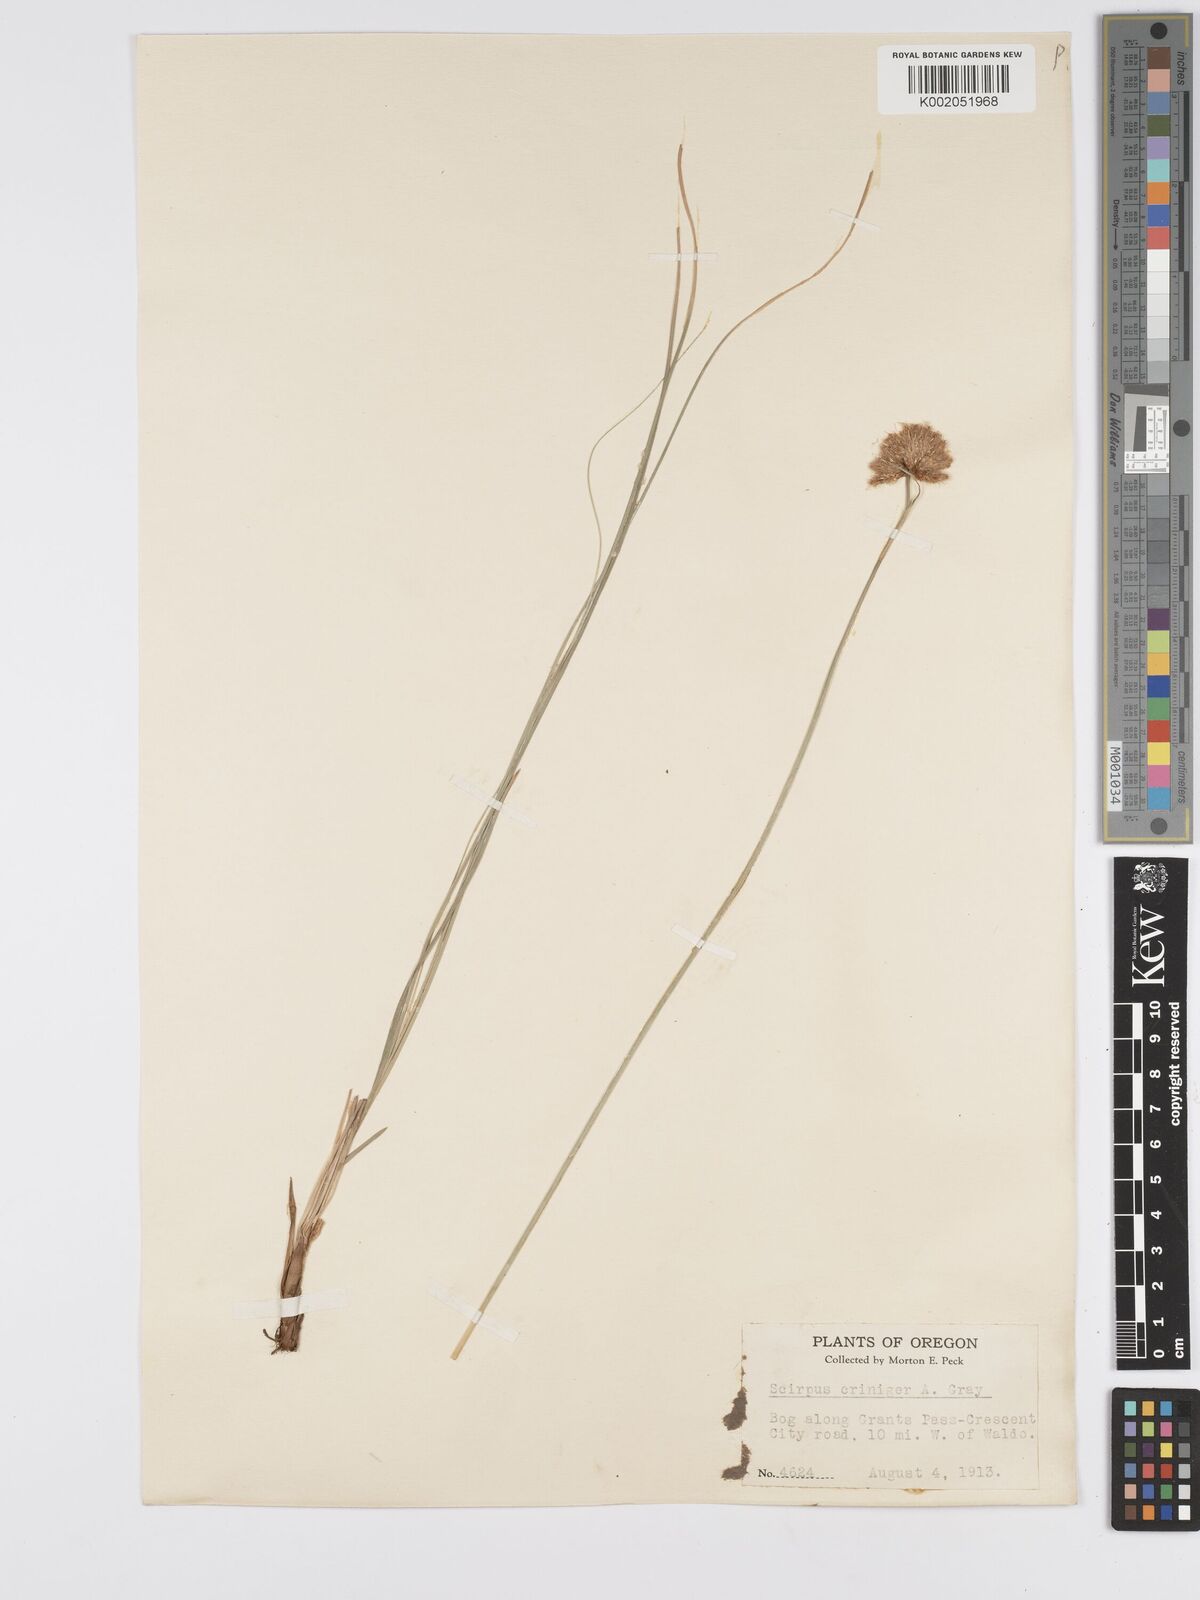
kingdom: Plantae
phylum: Tracheophyta
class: Liliopsida
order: Poales
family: Cyperaceae
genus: Calliscirpus
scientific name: Calliscirpus criniger
